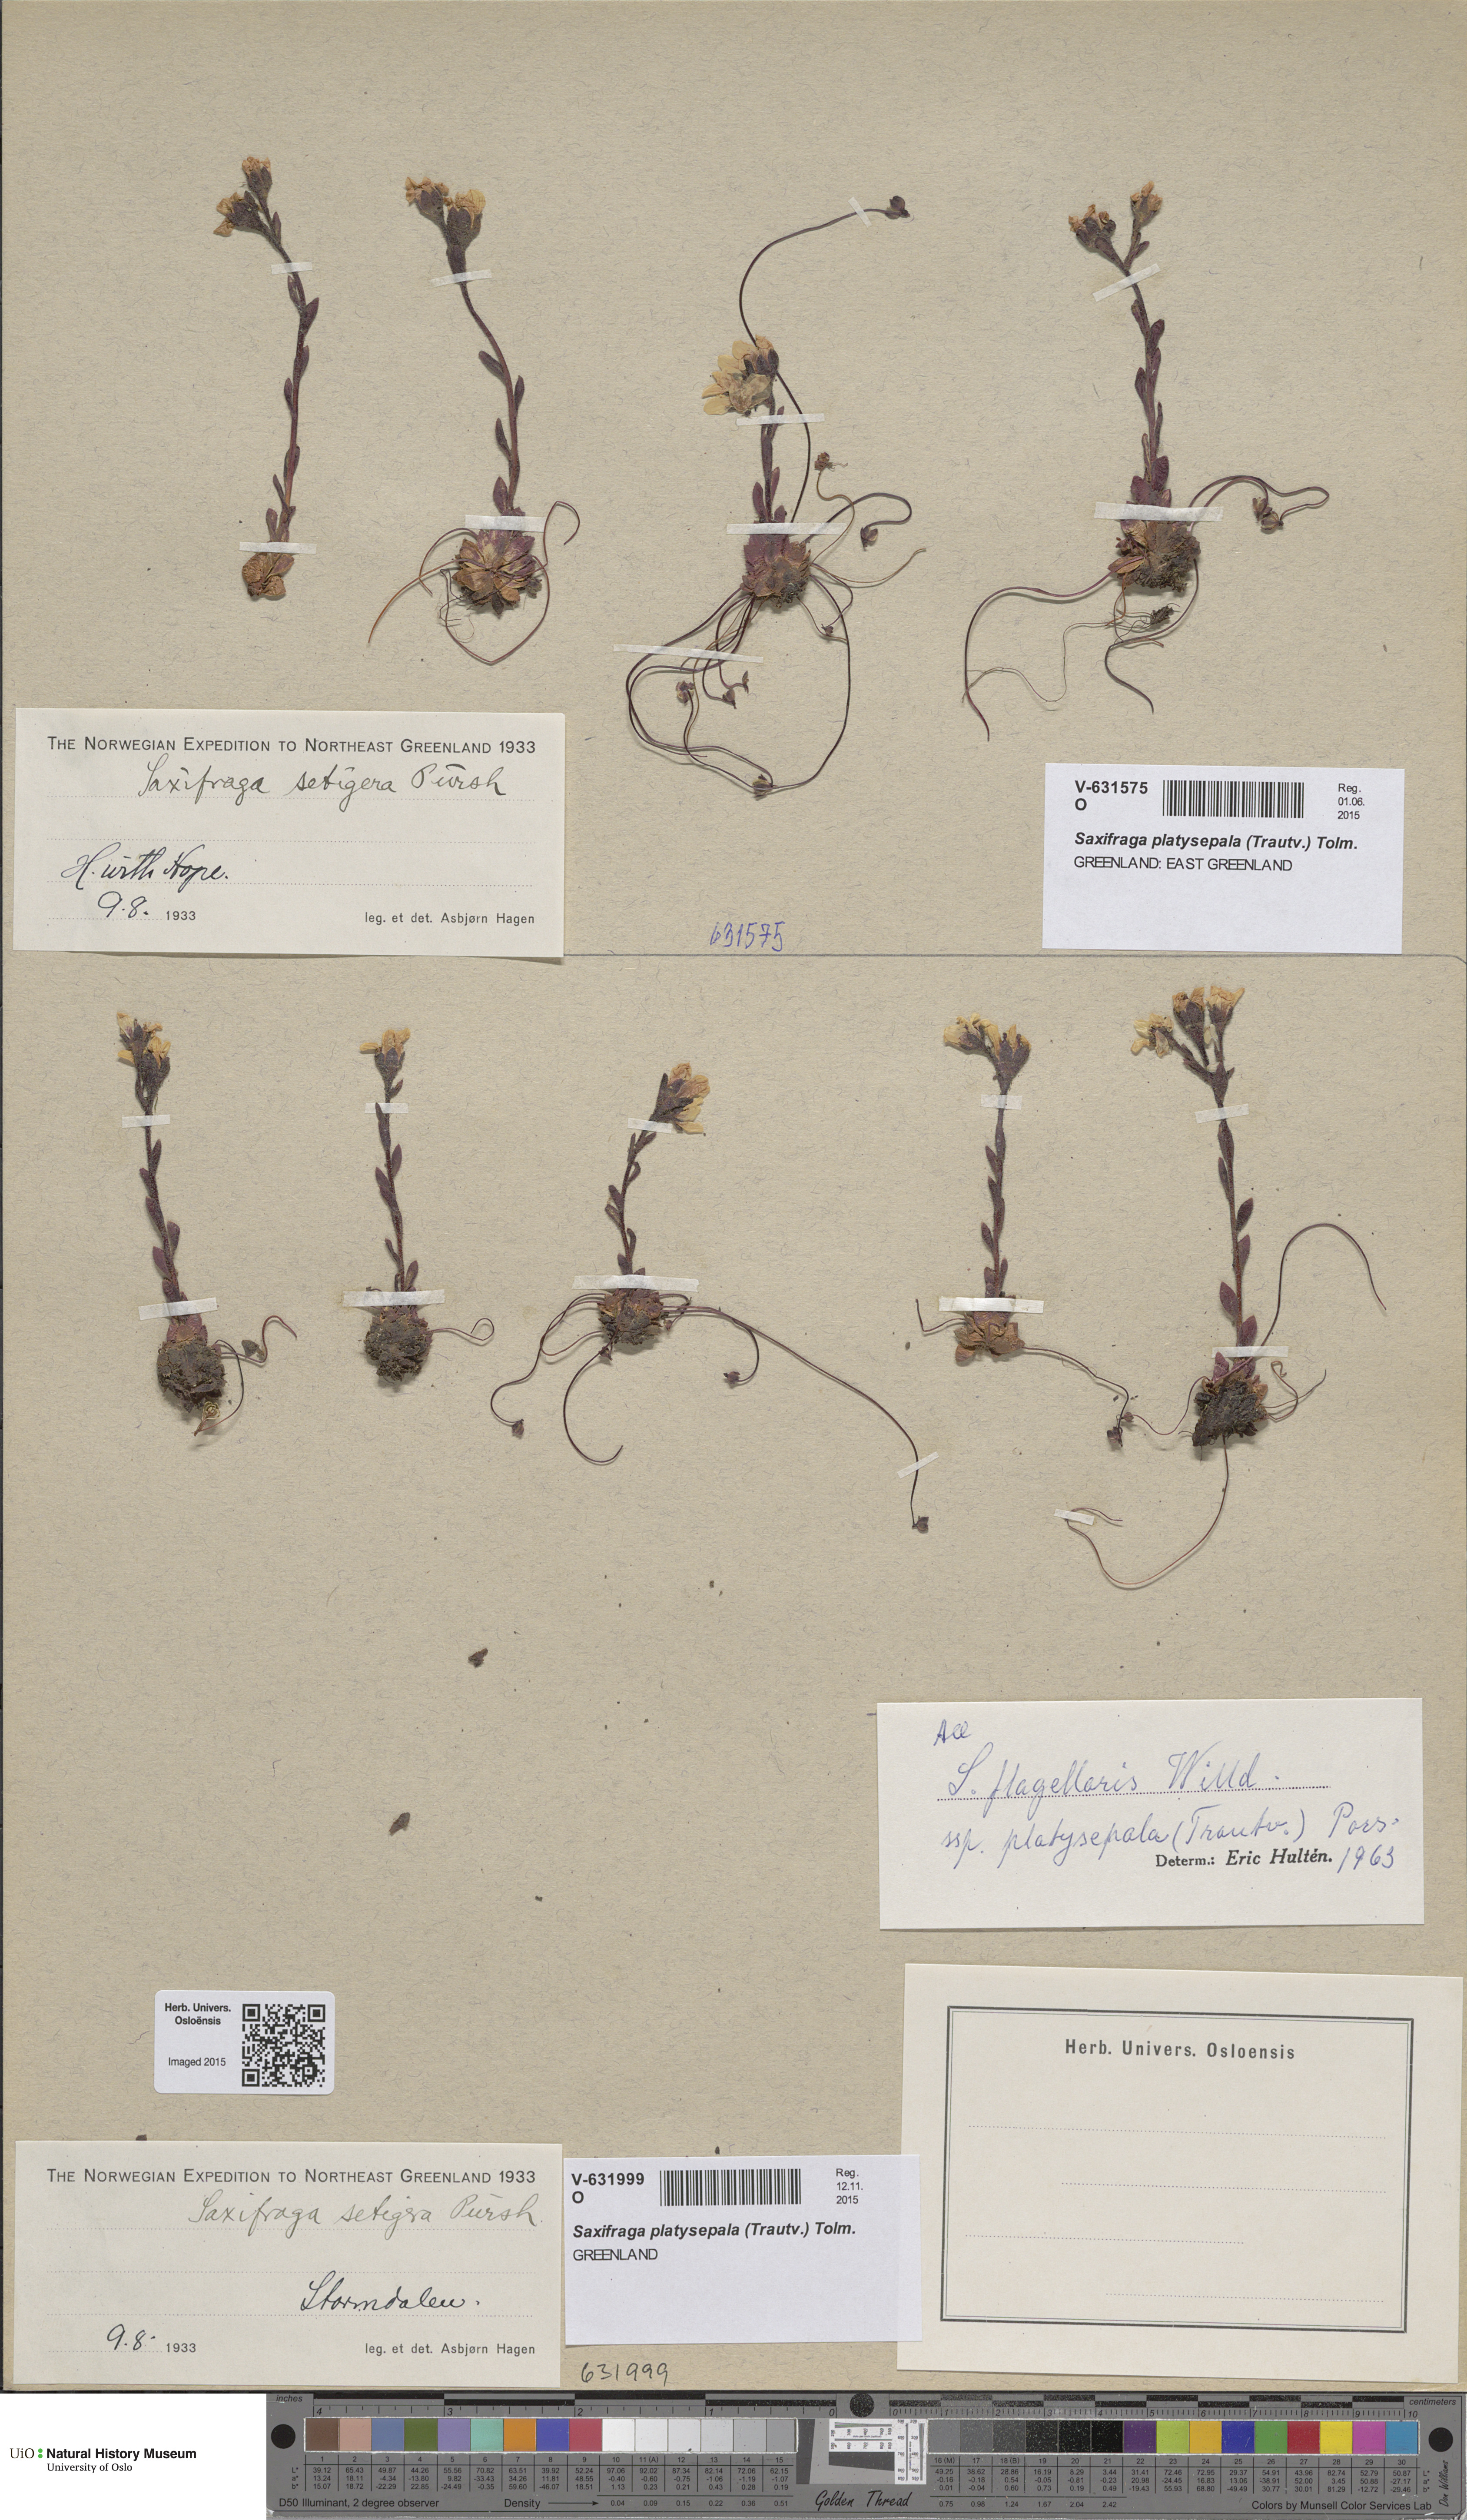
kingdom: Plantae
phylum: Tracheophyta
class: Magnoliopsida
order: Saxifragales
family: Saxifragaceae
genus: Saxifraga
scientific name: Saxifraga platysepala
